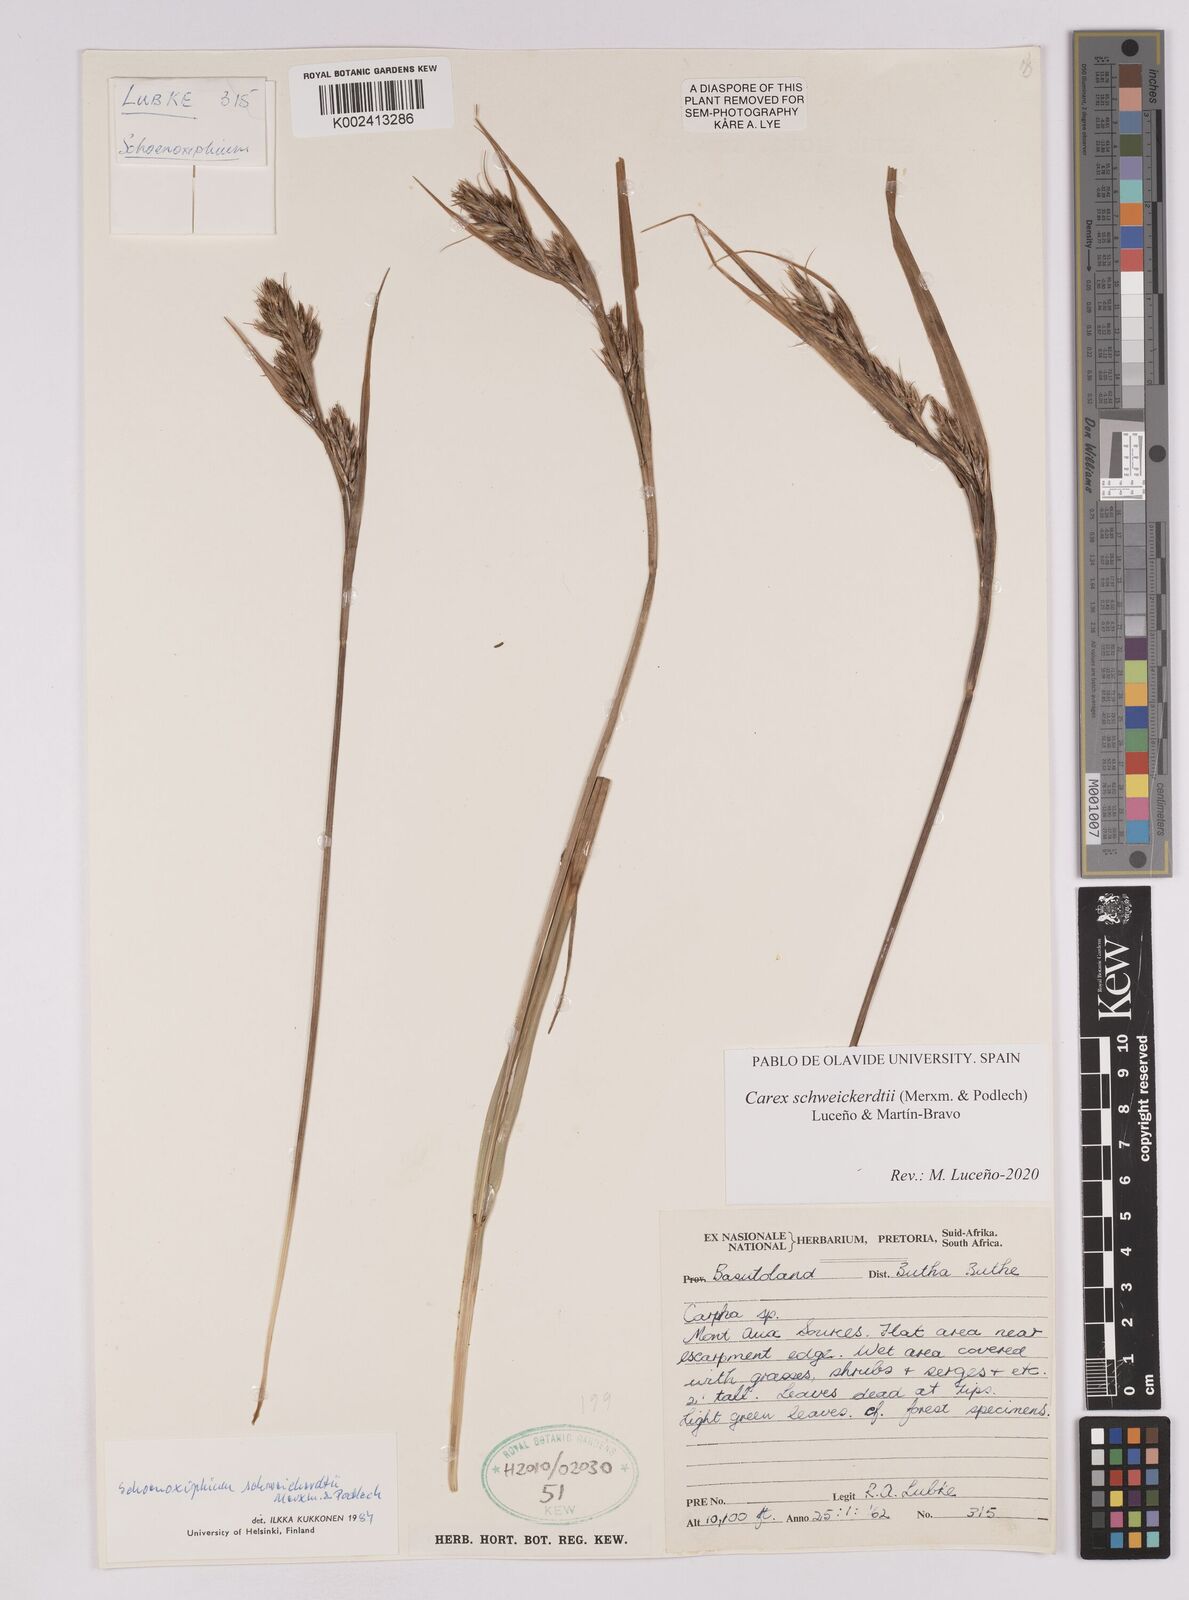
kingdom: Plantae
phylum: Tracheophyta
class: Liliopsida
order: Poales
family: Cyperaceae
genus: Carex
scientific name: Carex schweickerdtii
